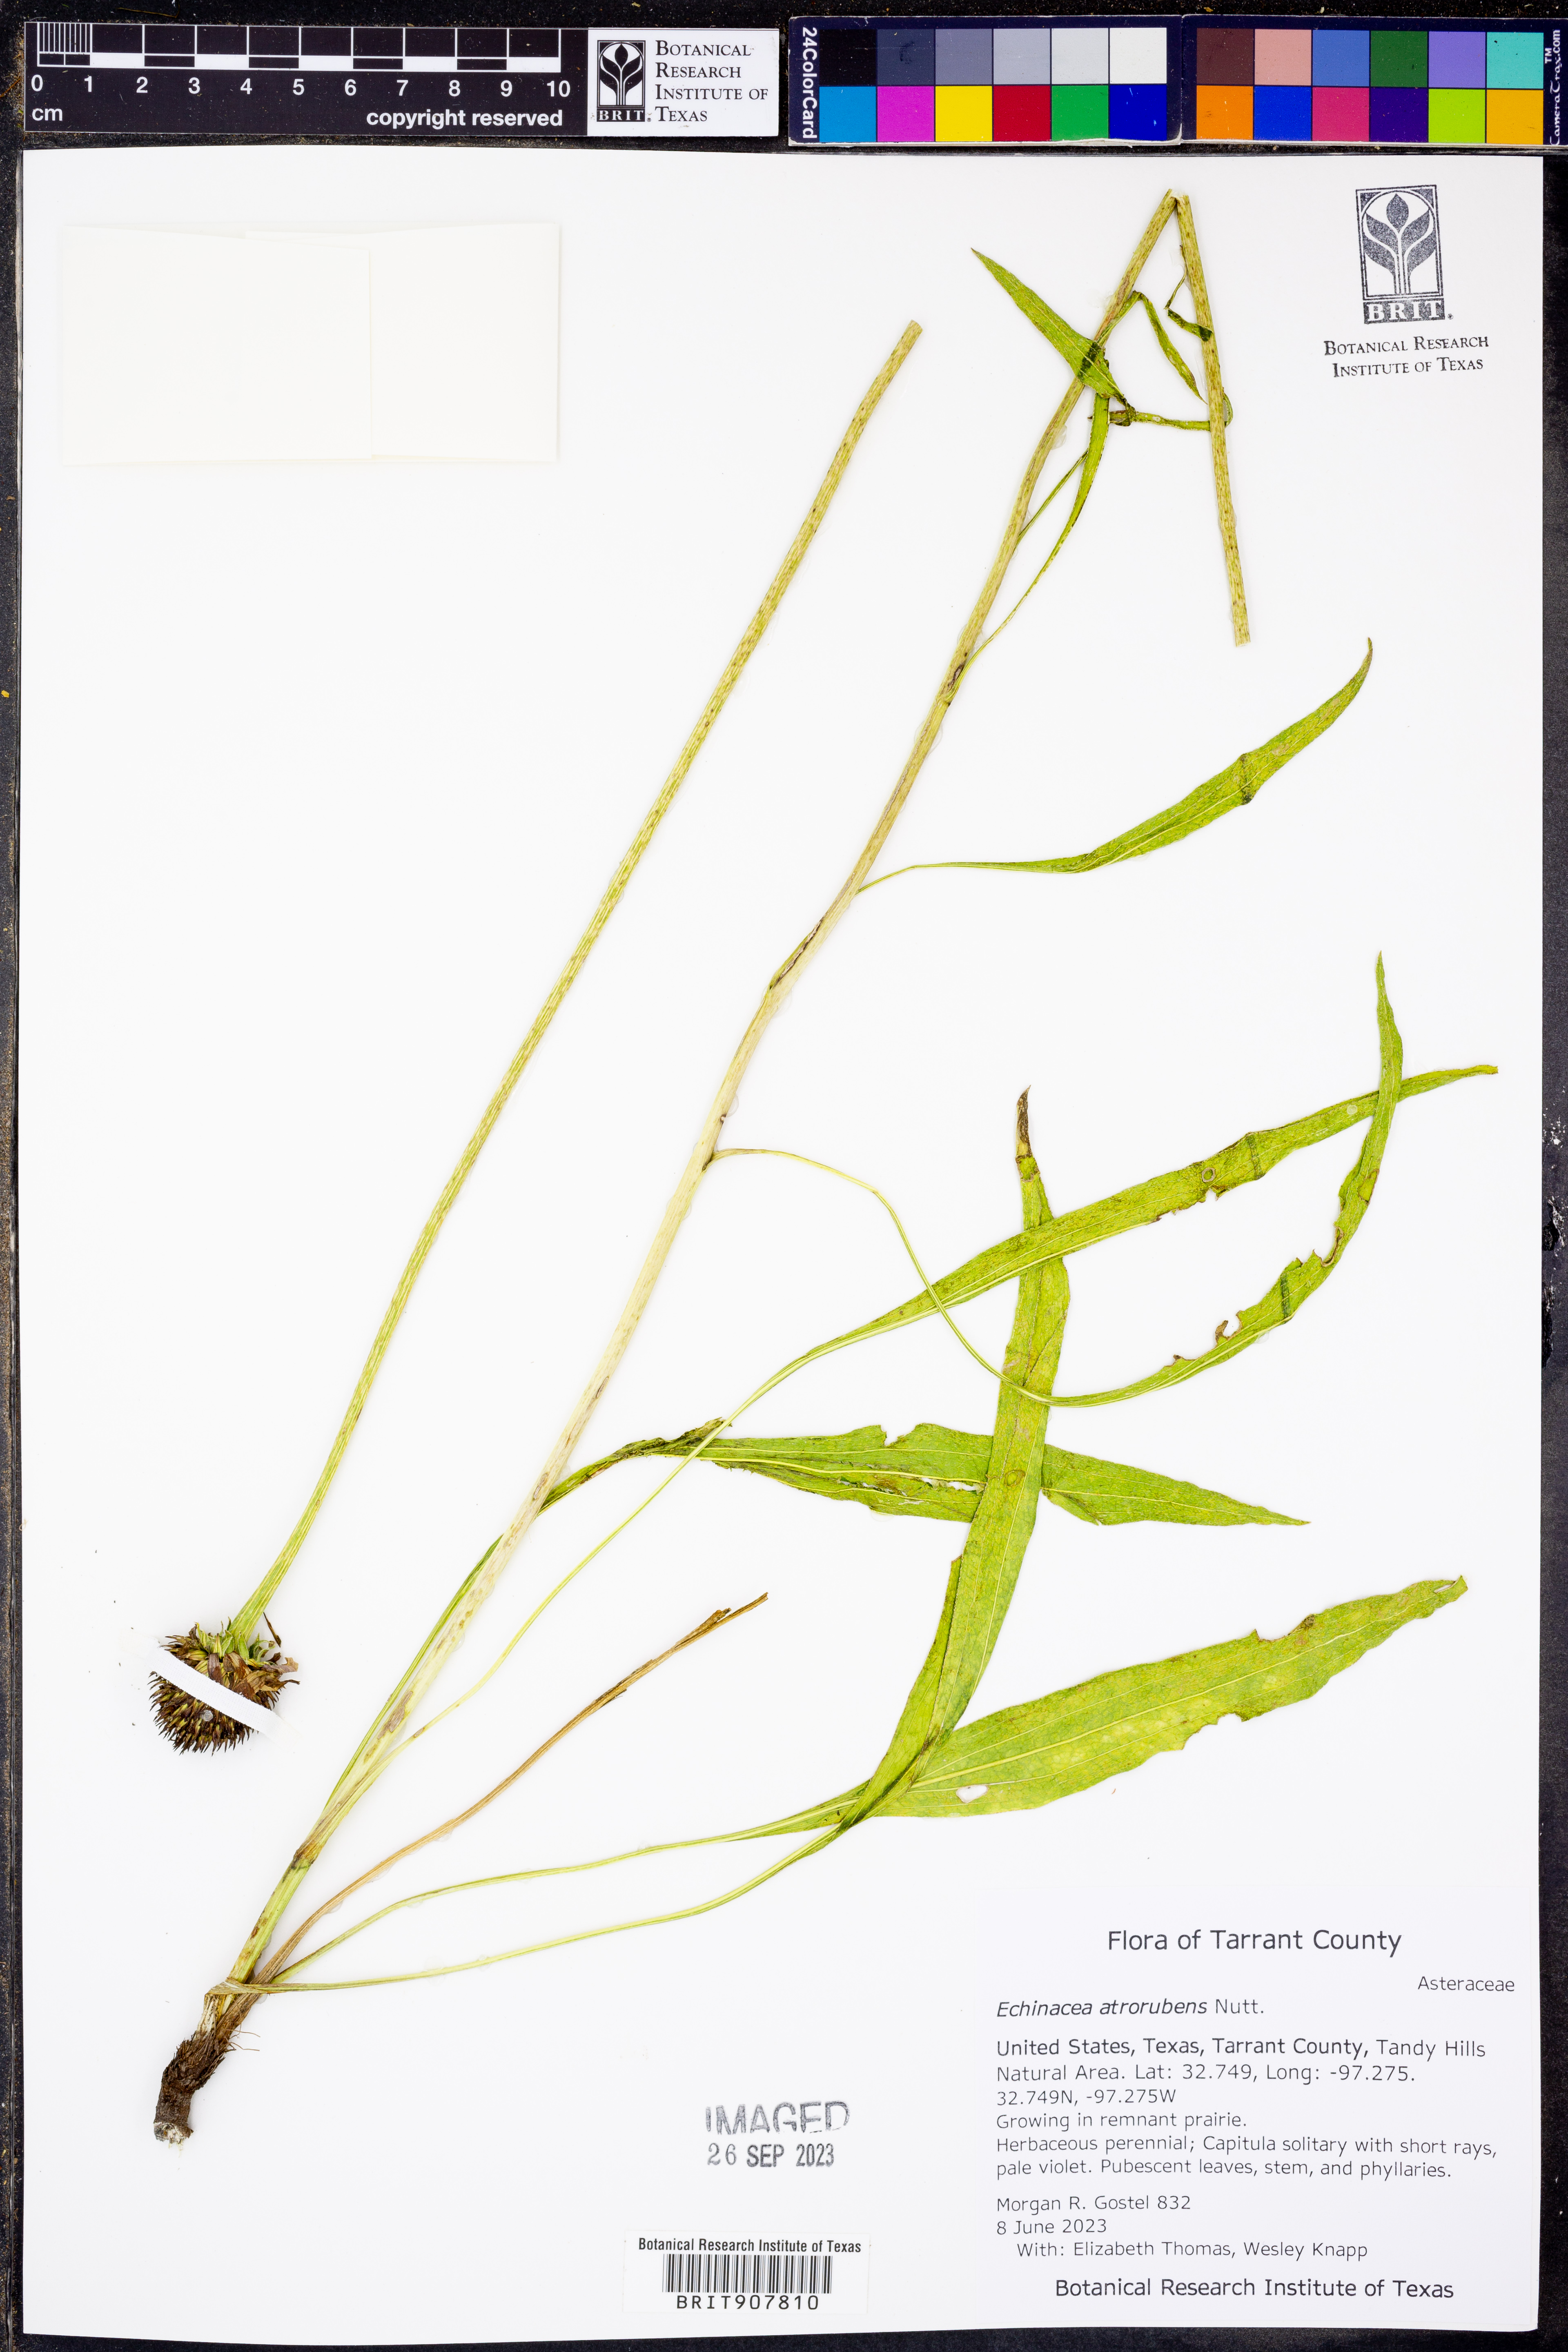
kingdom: Plantae
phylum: Tracheophyta
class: Magnoliopsida
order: Asterales
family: Asteraceae
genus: Echinacea
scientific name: Echinacea atrorubens
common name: Topeka purple-coneflower
